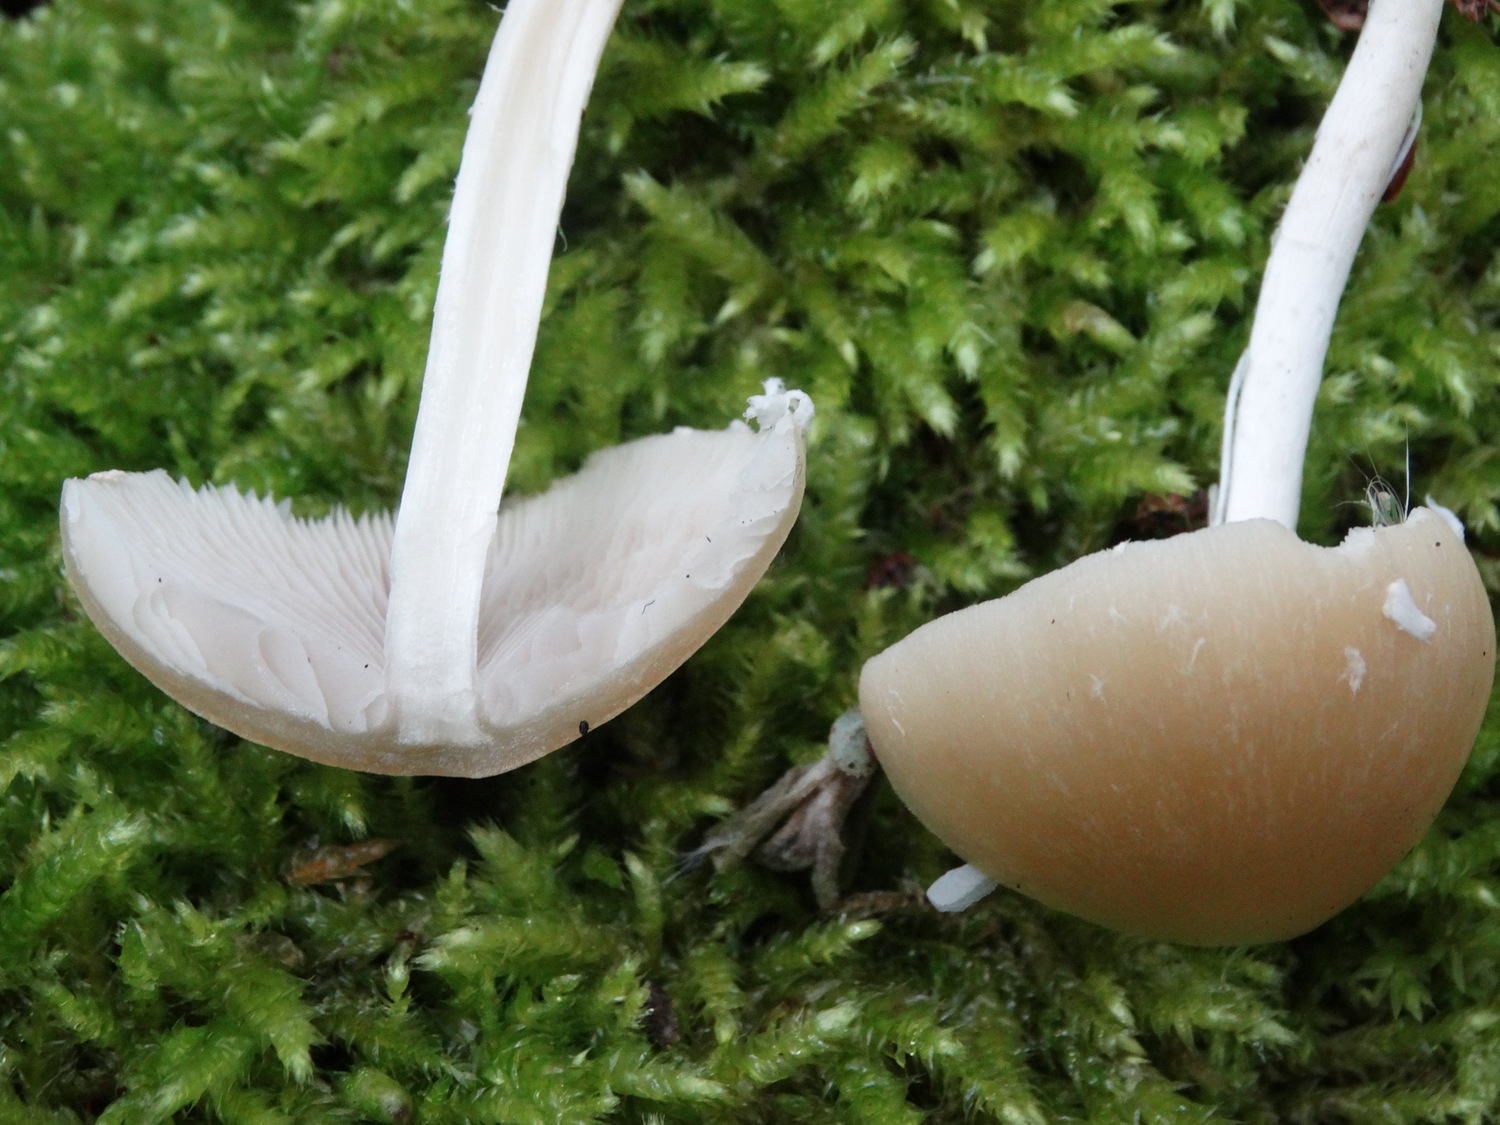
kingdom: Fungi
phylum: Basidiomycota
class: Agaricomycetes
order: Agaricales
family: Psathyrellaceae
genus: Candolleomyces
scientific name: Candolleomyces candolleanus
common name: Candolles mørkhat
